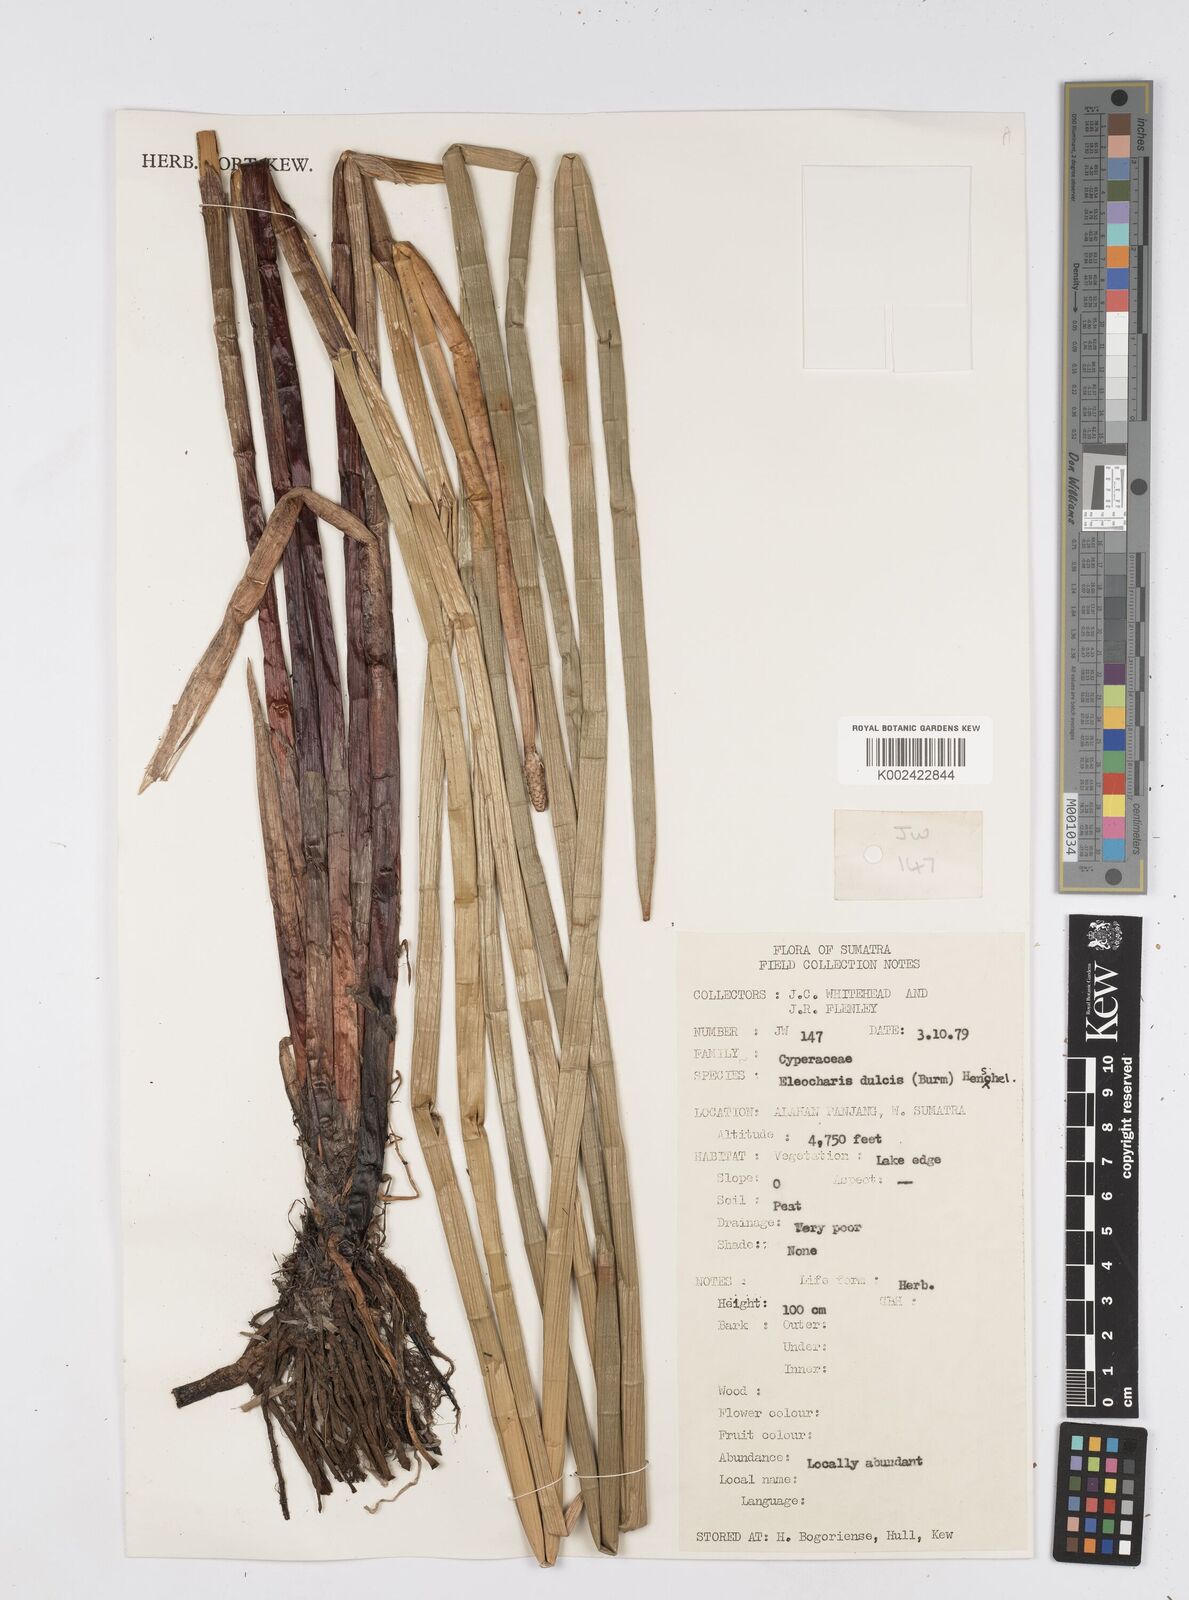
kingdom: Plantae
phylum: Tracheophyta
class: Liliopsida
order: Poales
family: Cyperaceae
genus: Eleocharis
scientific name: Eleocharis dulcis
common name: Chinese water chestnut
